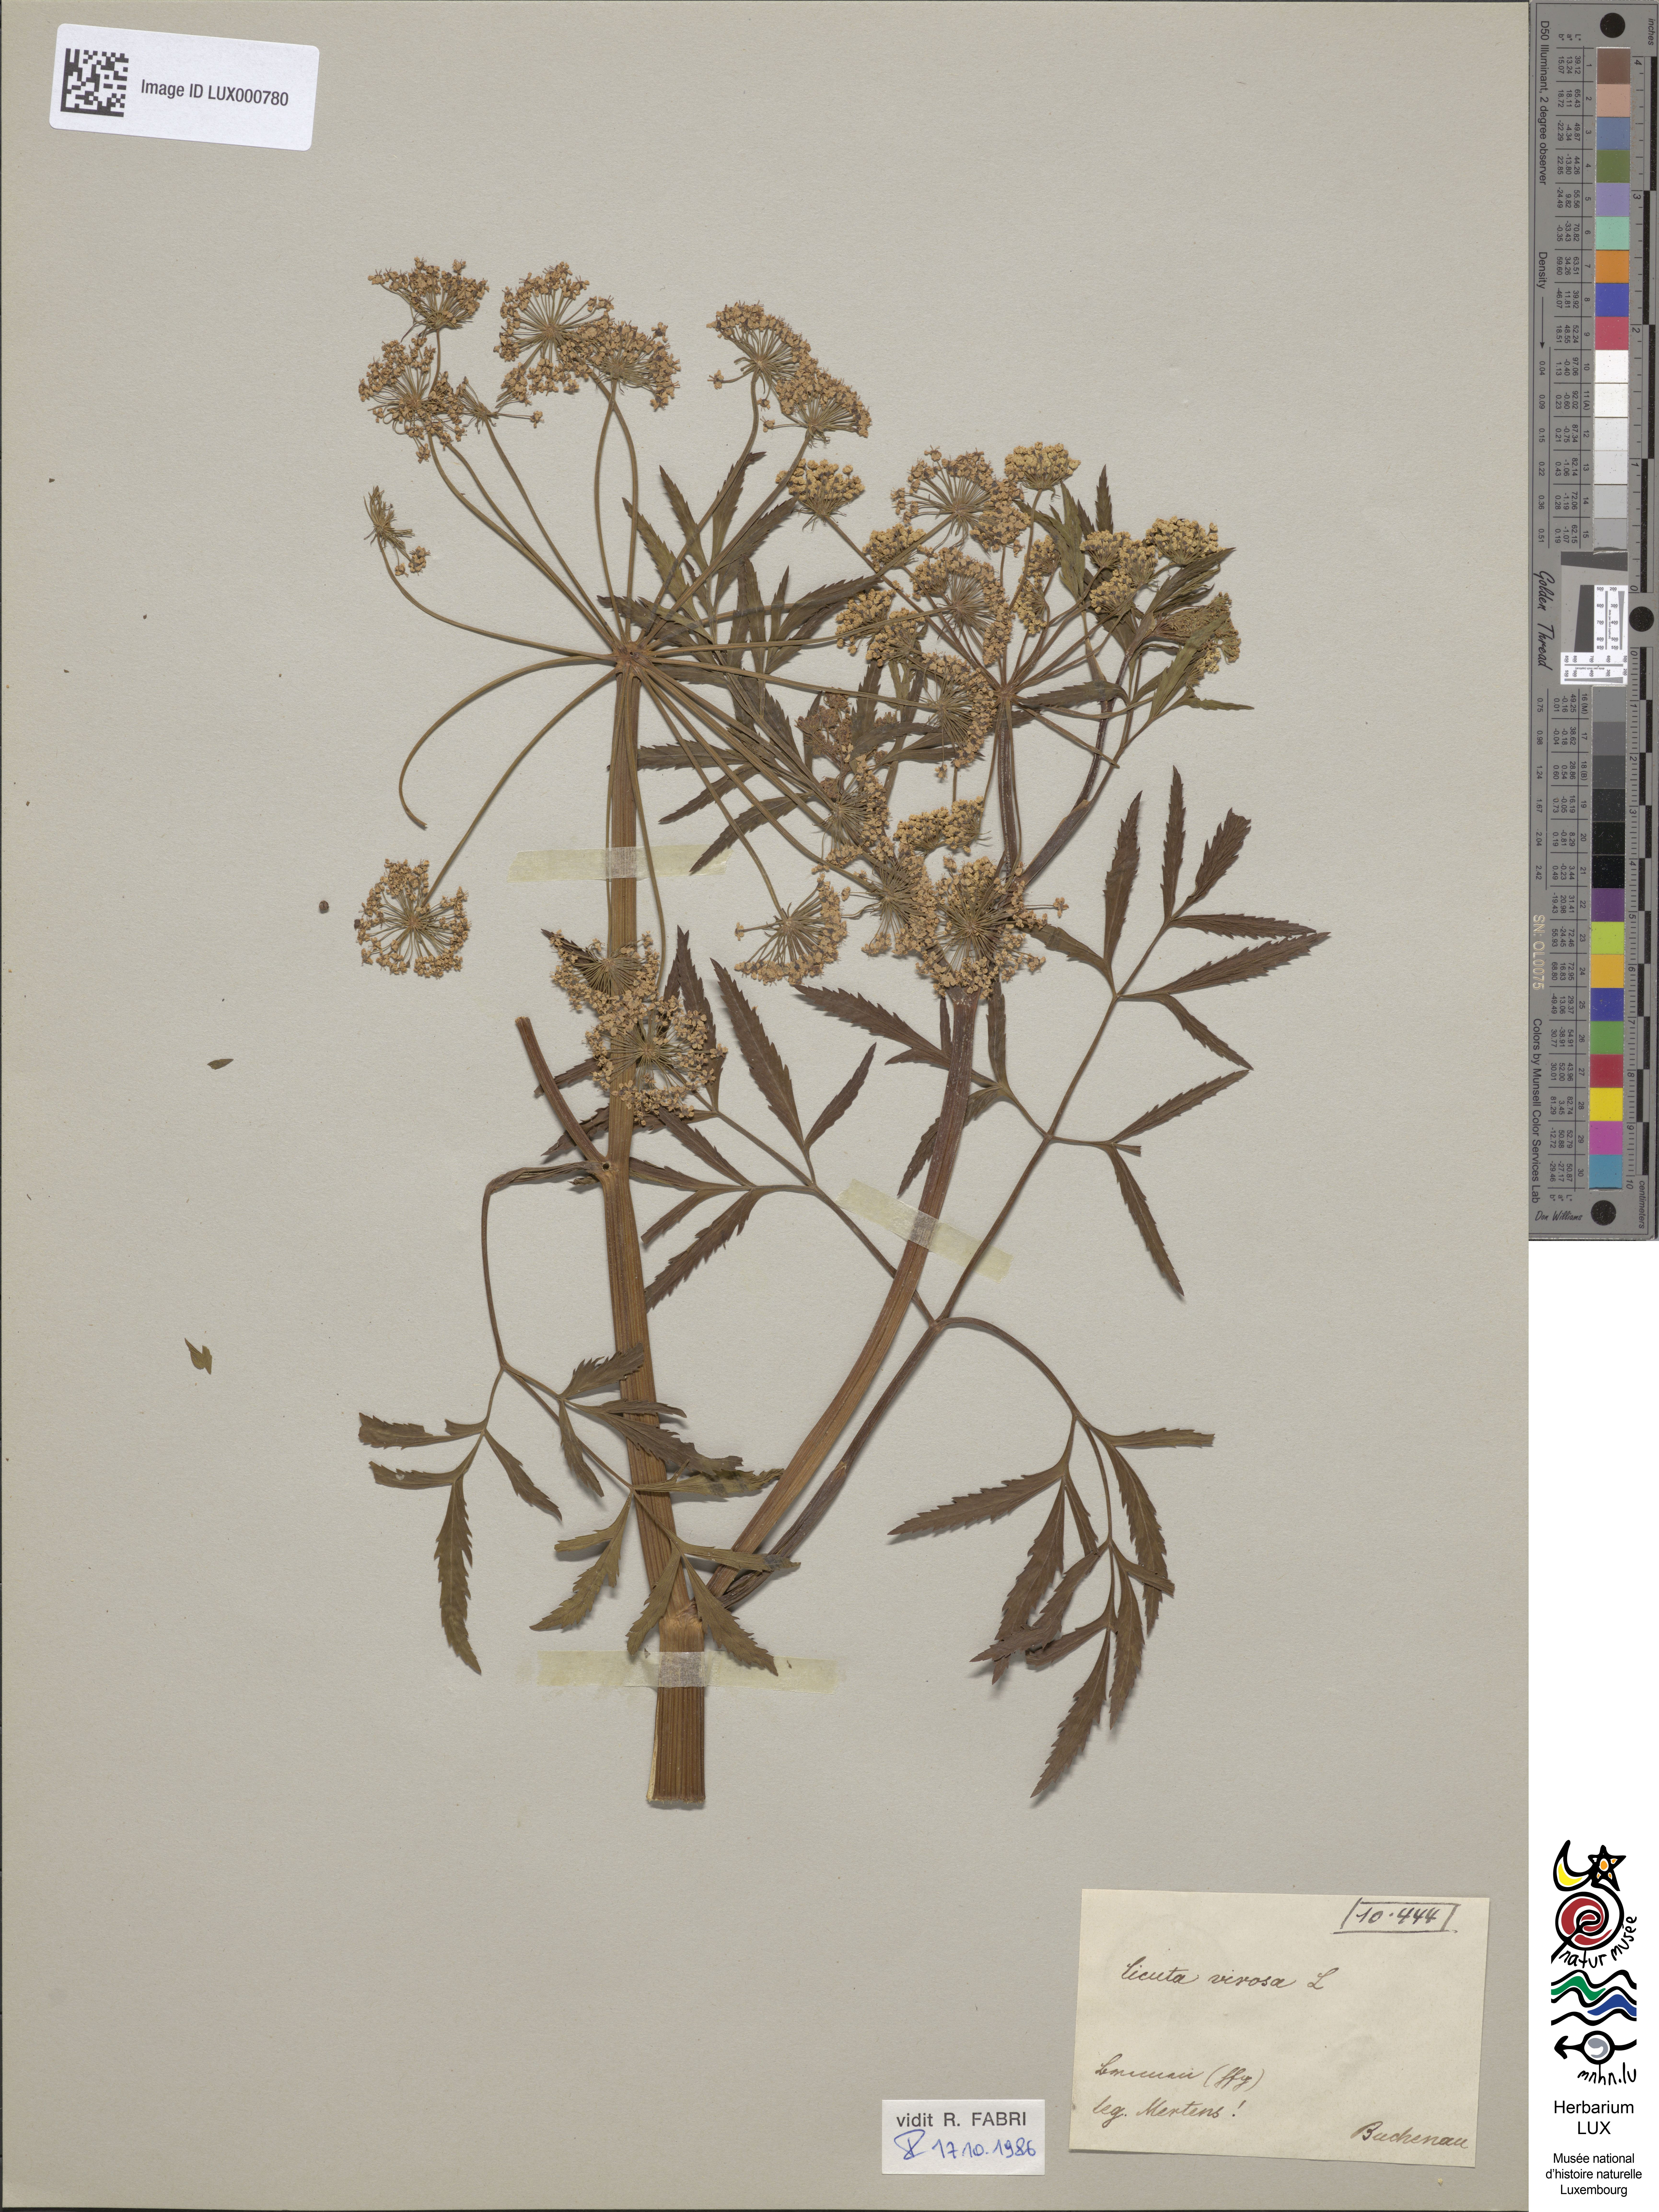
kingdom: Plantae
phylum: Tracheophyta
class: Magnoliopsida
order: Apiales
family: Apiaceae
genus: Cicuta
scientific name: Cicuta virosa
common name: Cowbane
